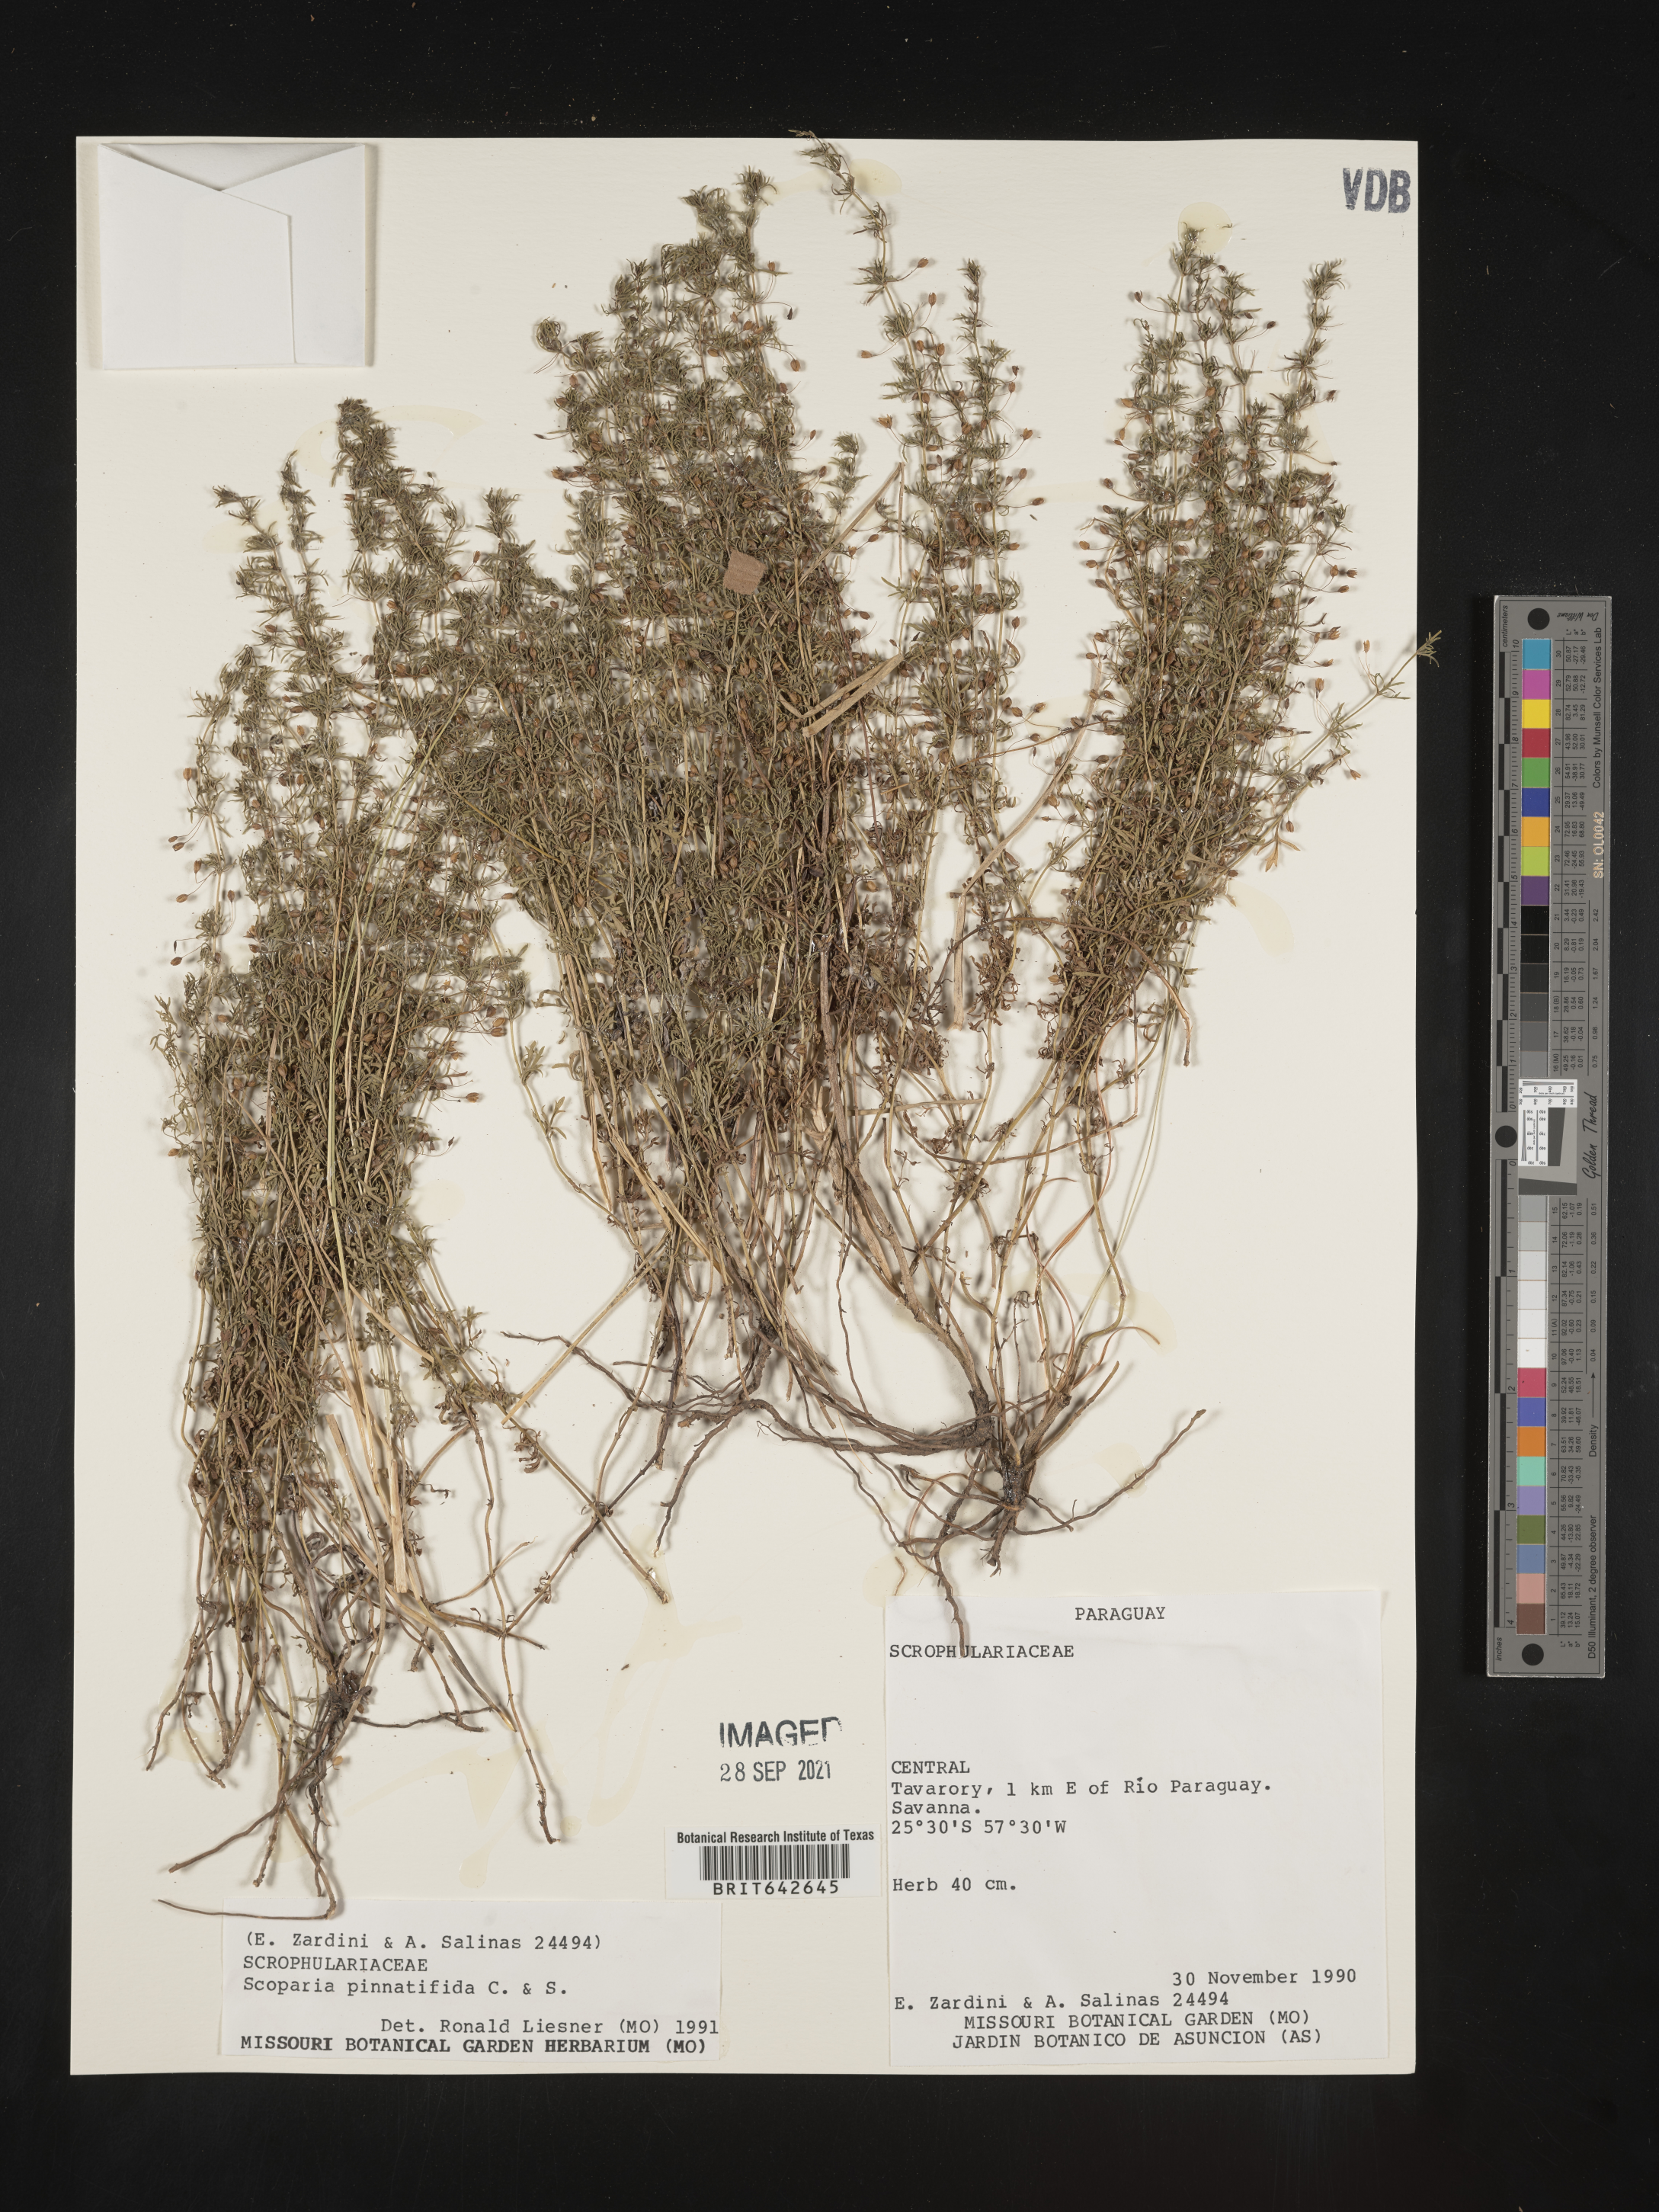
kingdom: Plantae
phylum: Tracheophyta
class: Magnoliopsida
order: Lamiales
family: Plantaginaceae
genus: Scoparia
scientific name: Scoparia
